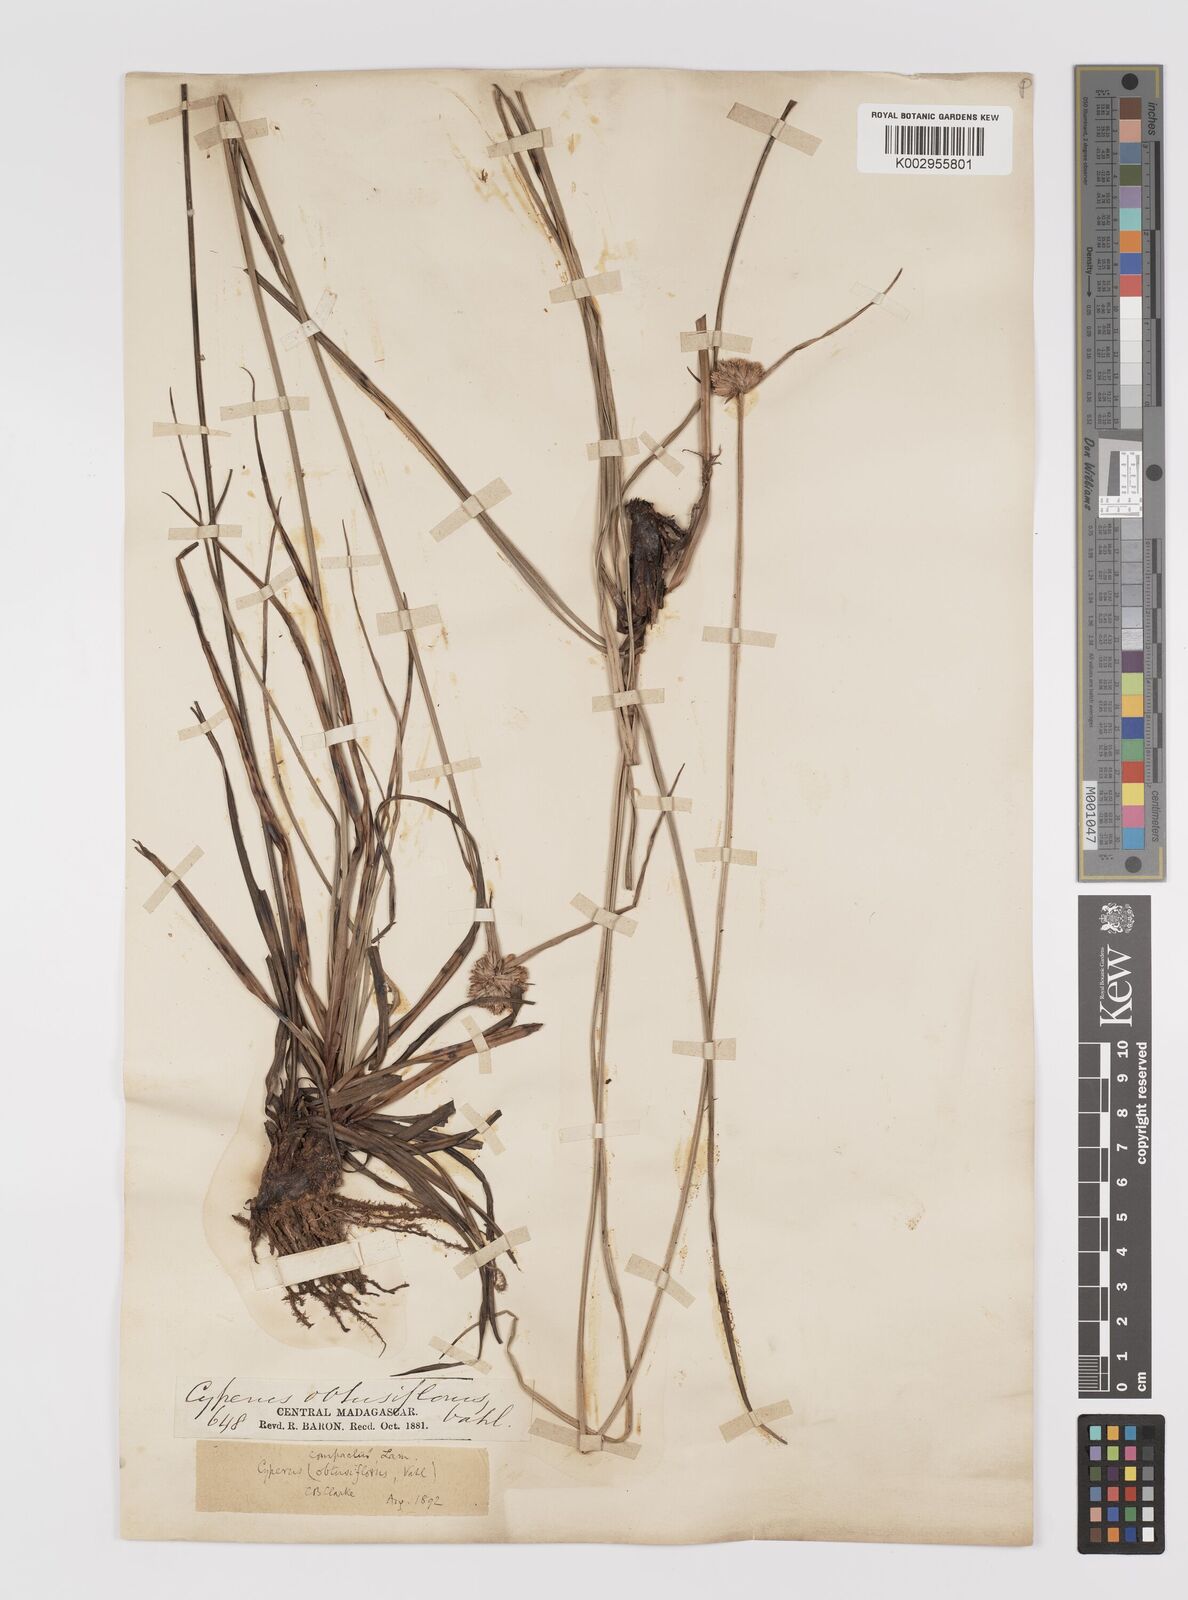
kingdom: Plantae
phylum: Tracheophyta
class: Liliopsida
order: Poales
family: Cyperaceae
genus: Cyperus
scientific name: Cyperus niveus
